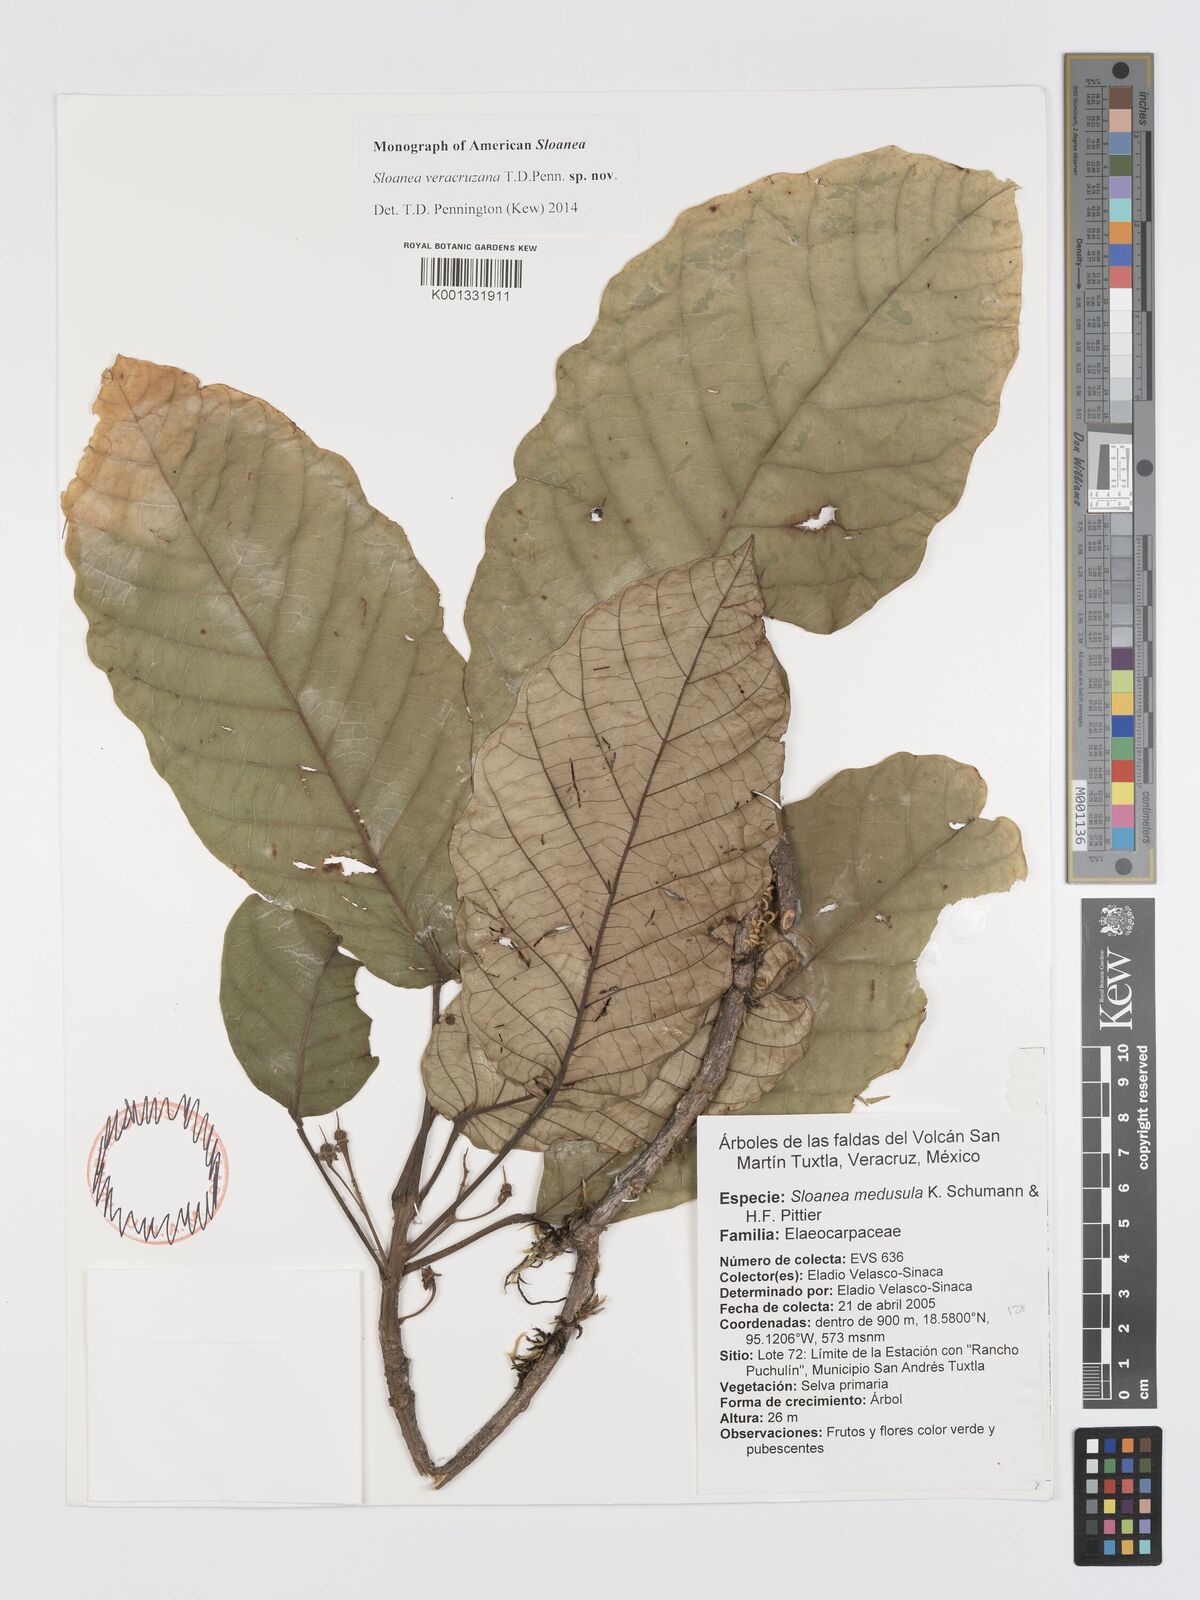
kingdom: Plantae
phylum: Tracheophyta
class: Magnoliopsida
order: Oxalidales
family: Elaeocarpaceae
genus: Sloanea
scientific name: Sloanea veracruzana
